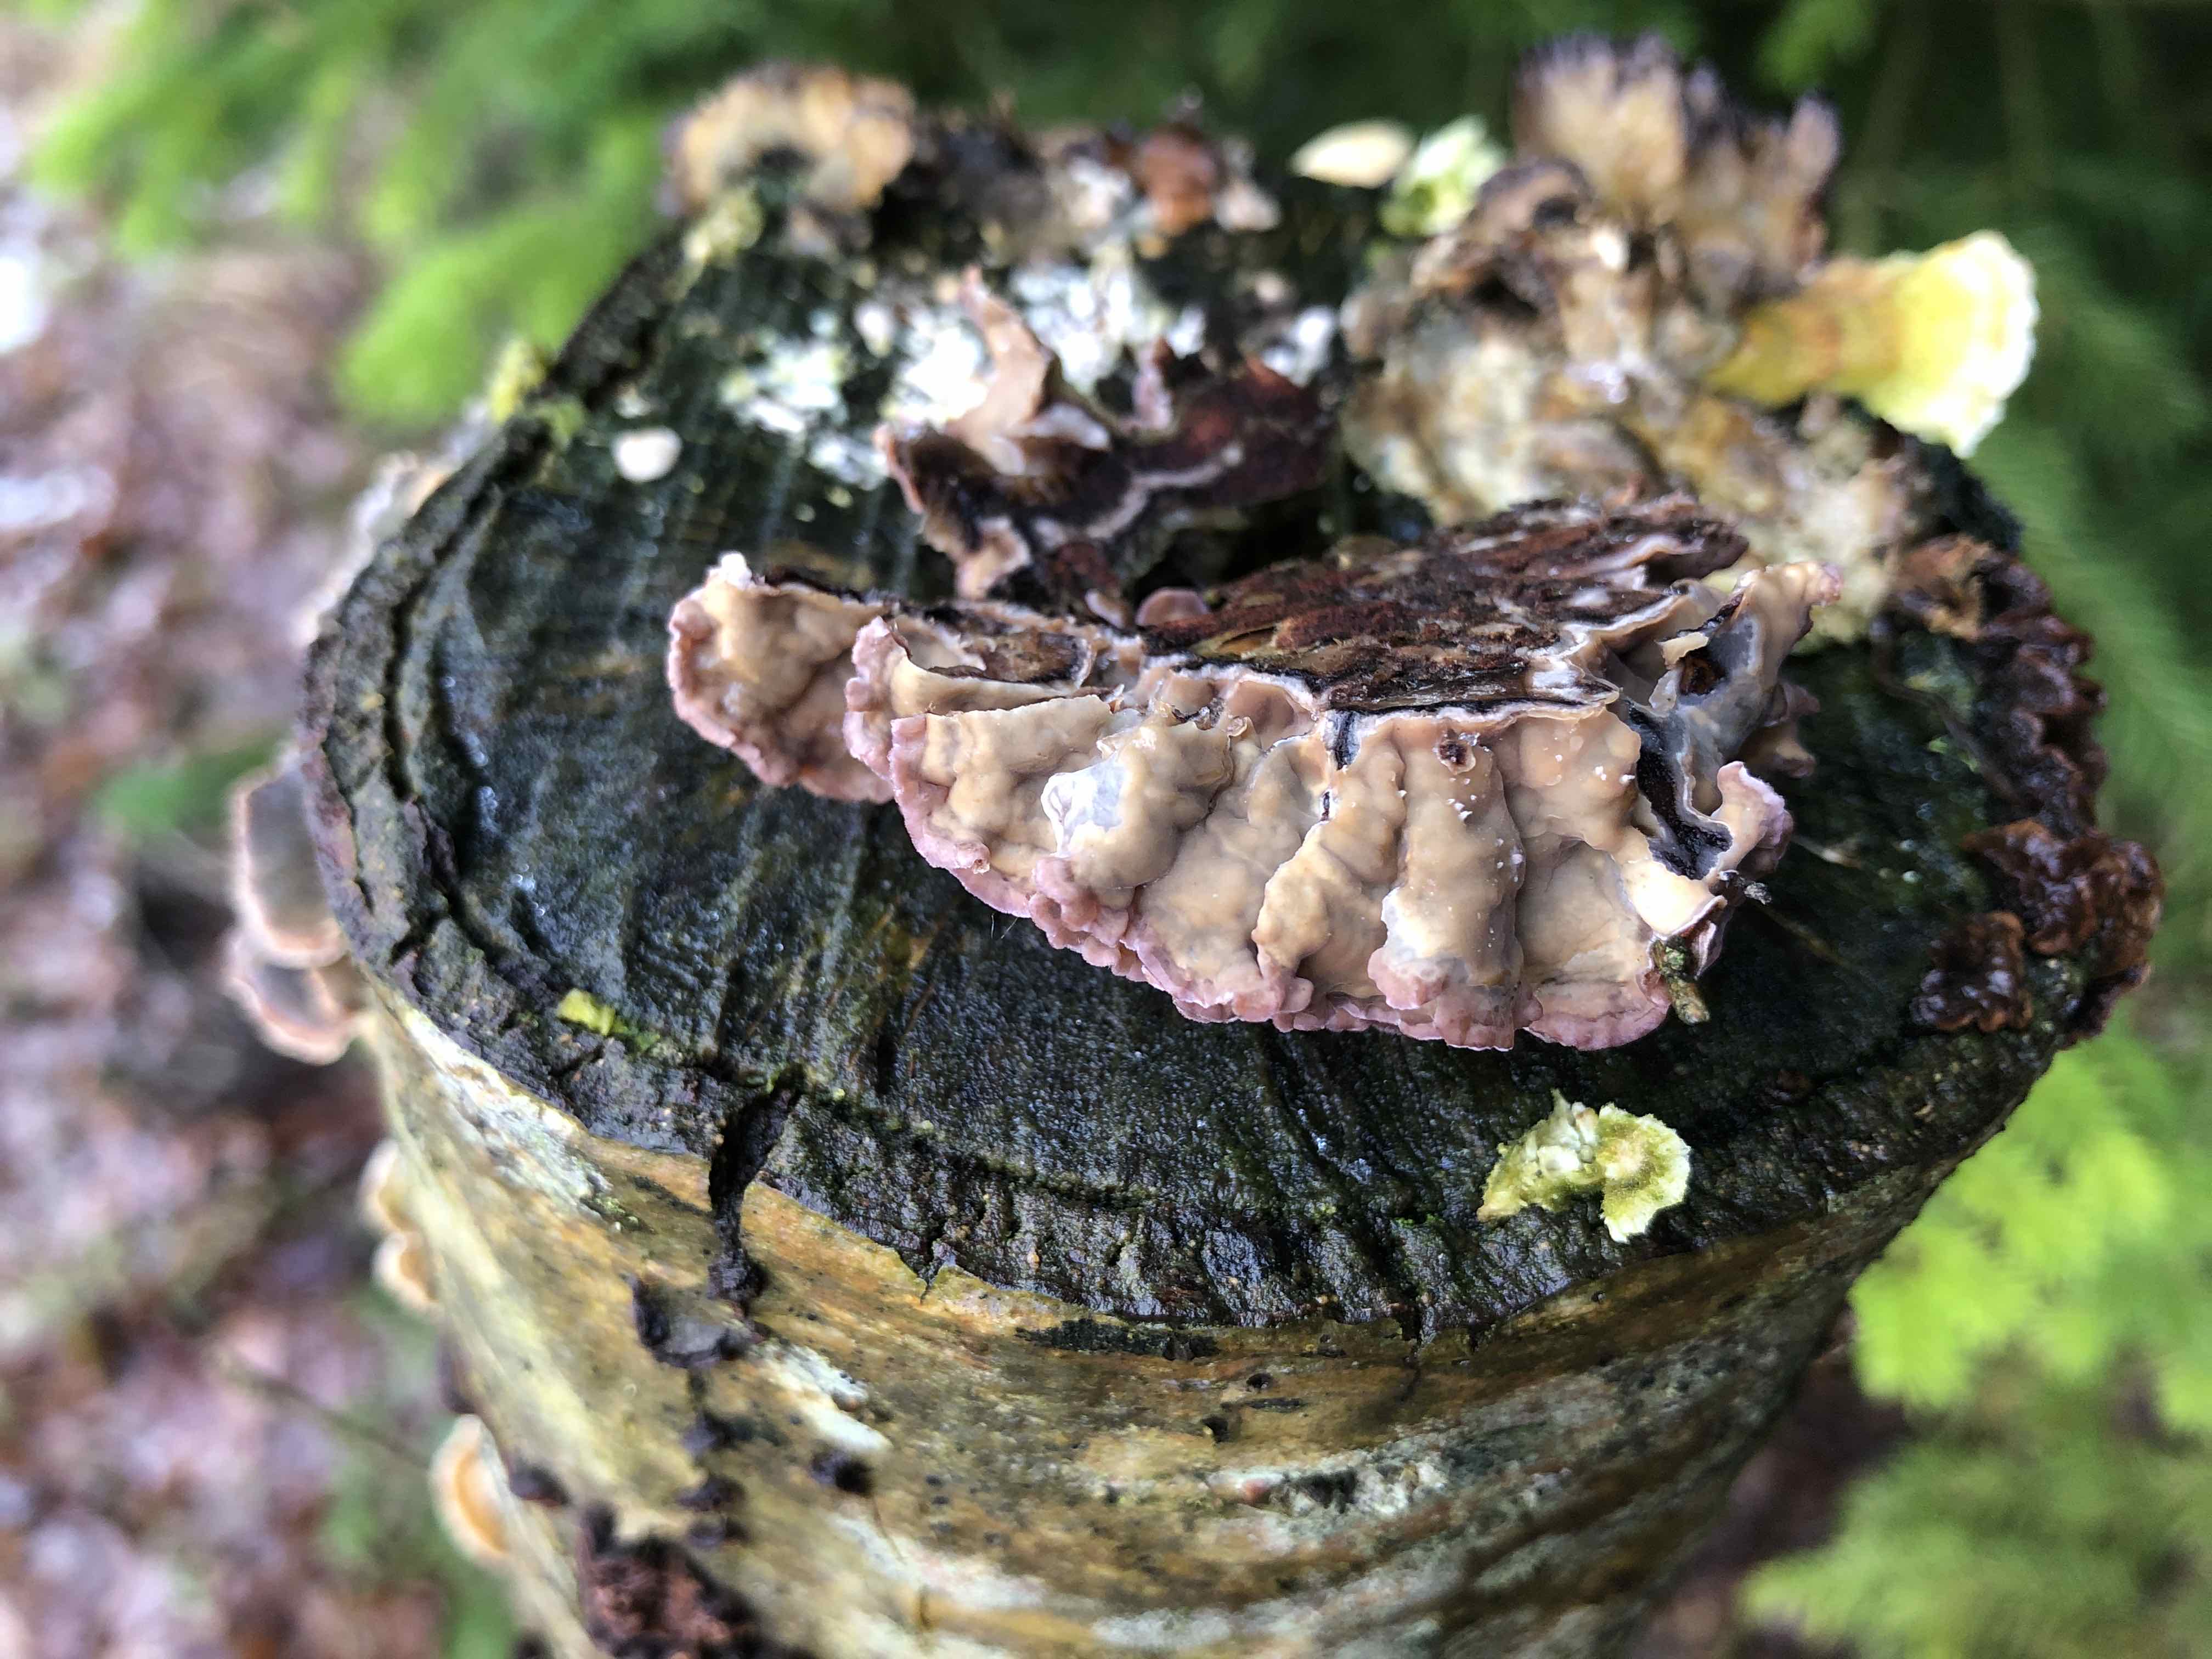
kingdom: Fungi
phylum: Basidiomycota
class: Agaricomycetes
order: Agaricales
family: Cyphellaceae
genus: Chondrostereum
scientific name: Chondrostereum purpureum
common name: purpurlædersvamp
